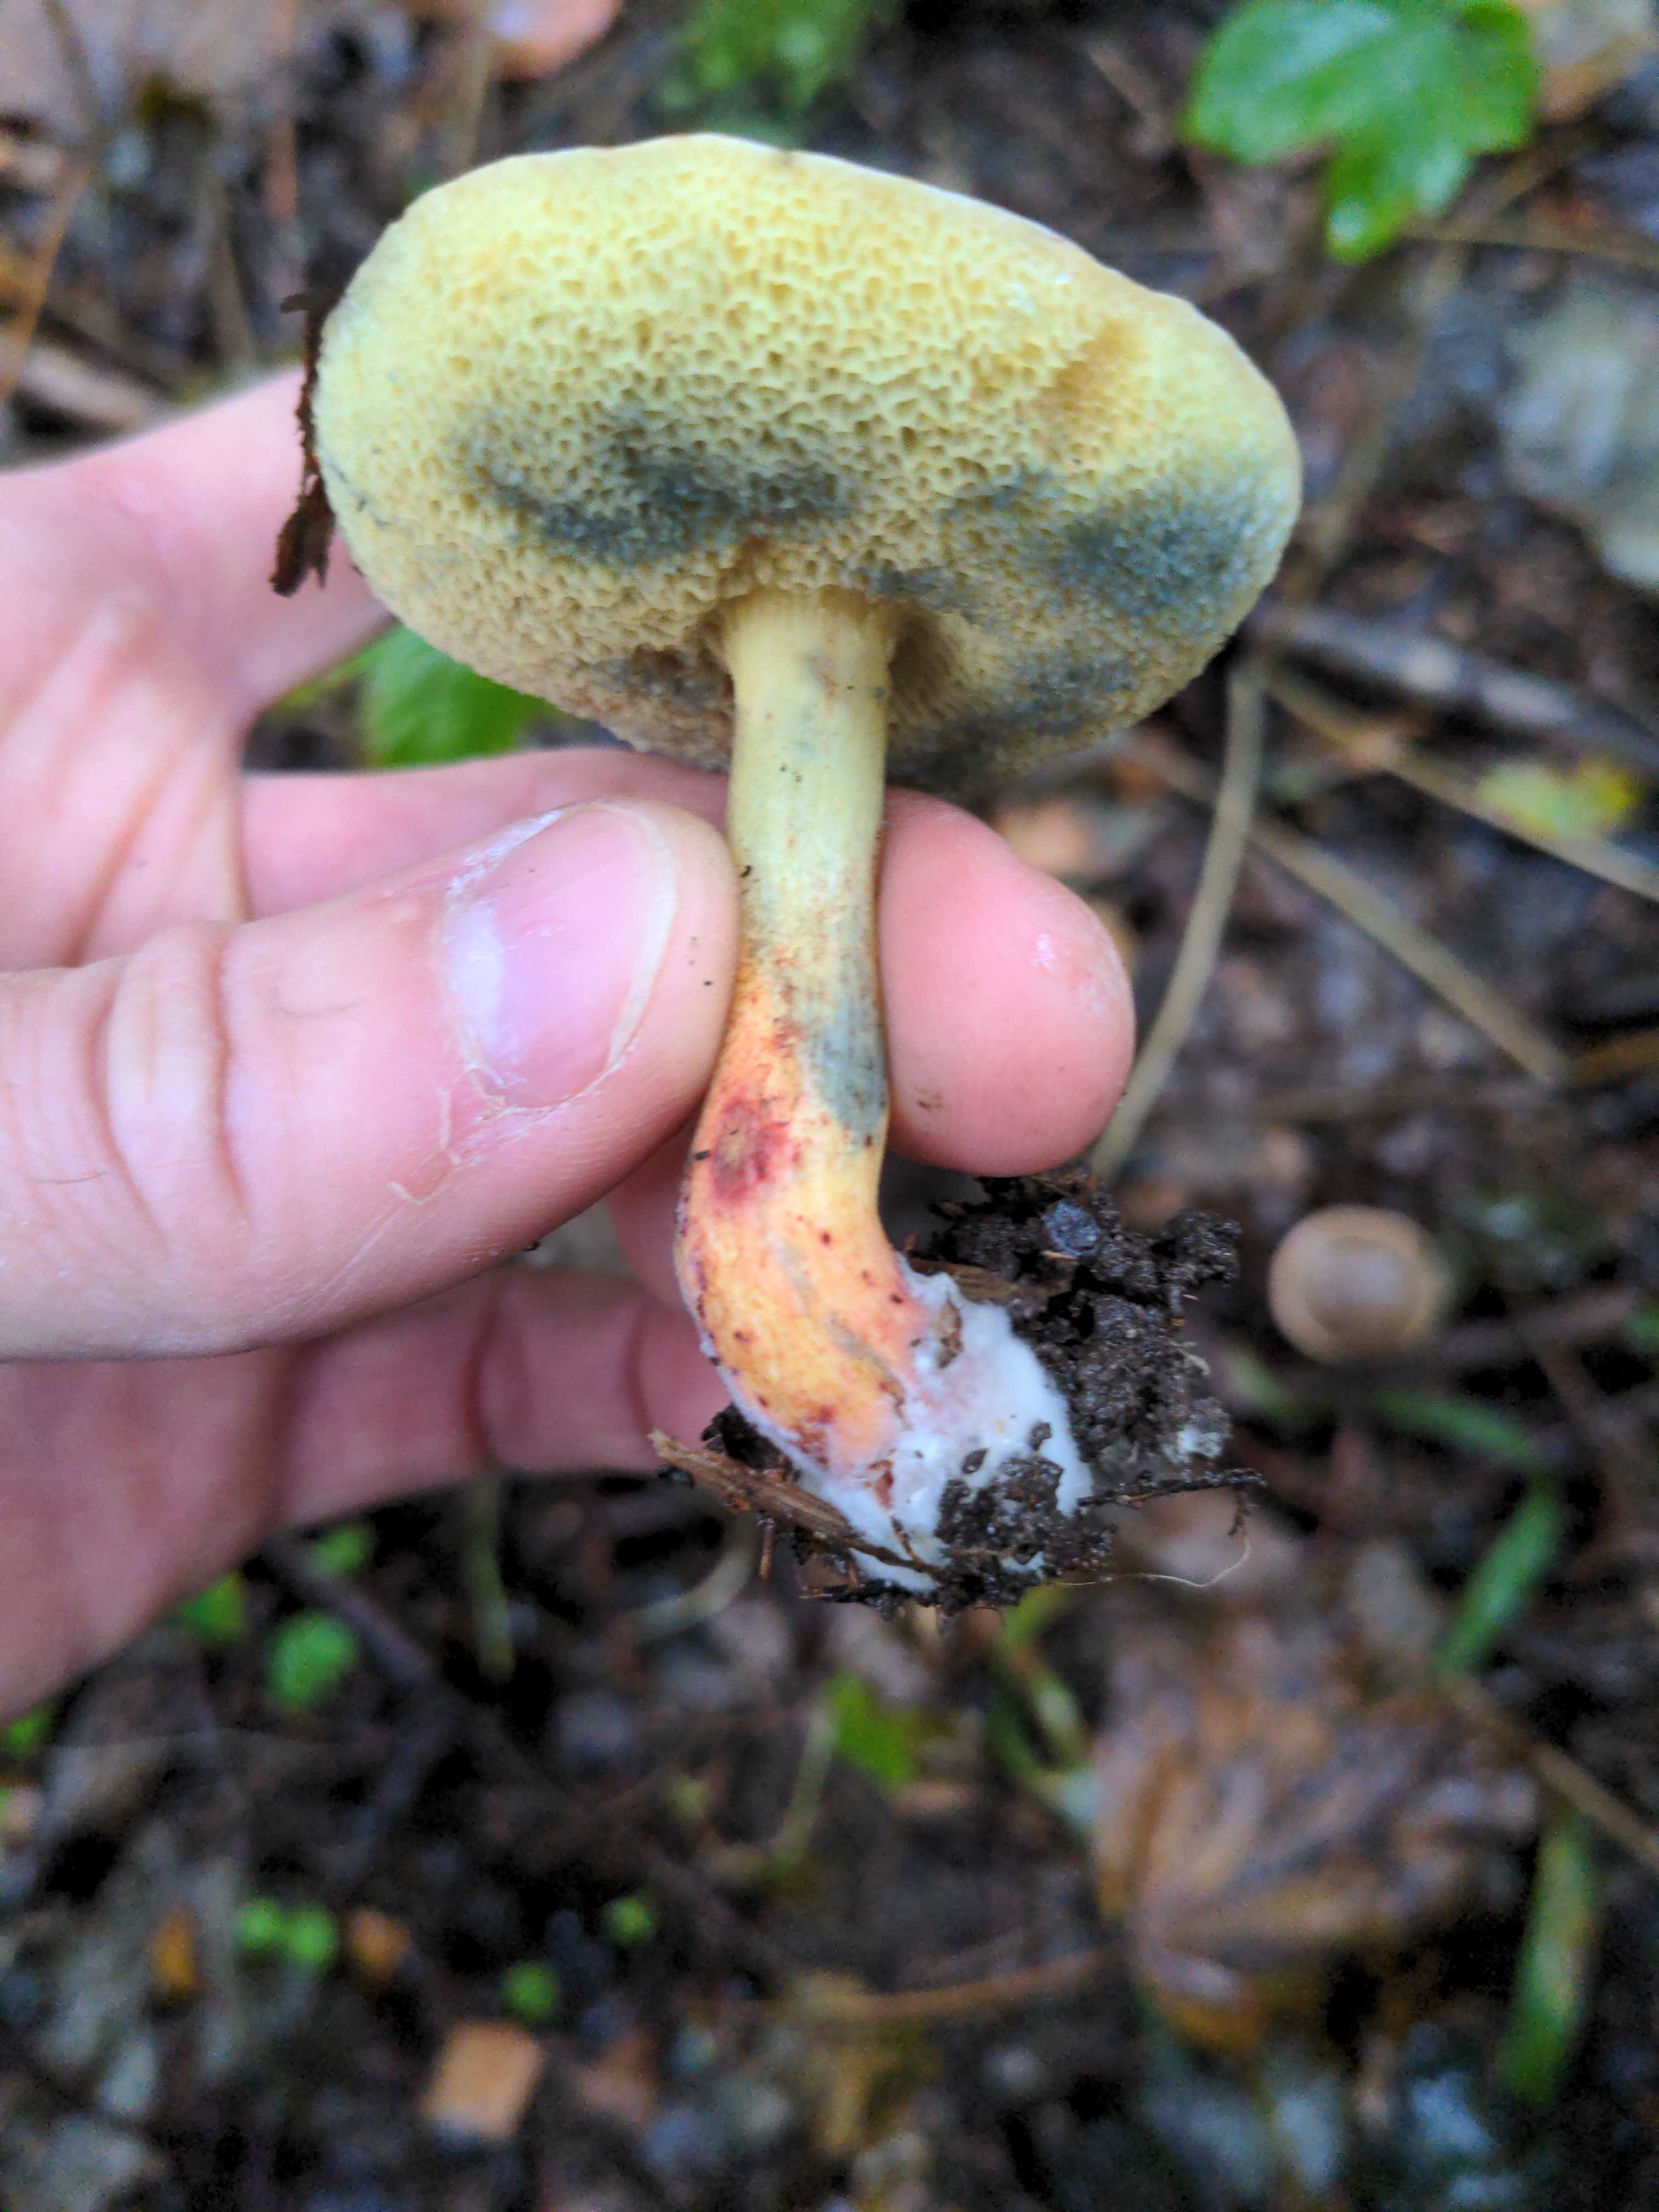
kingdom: Fungi
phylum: Basidiomycota
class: Agaricomycetes
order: Boletales
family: Boletaceae
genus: Xerocomellus
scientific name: Xerocomellus cisalpinus
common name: finsprukken rørhat
